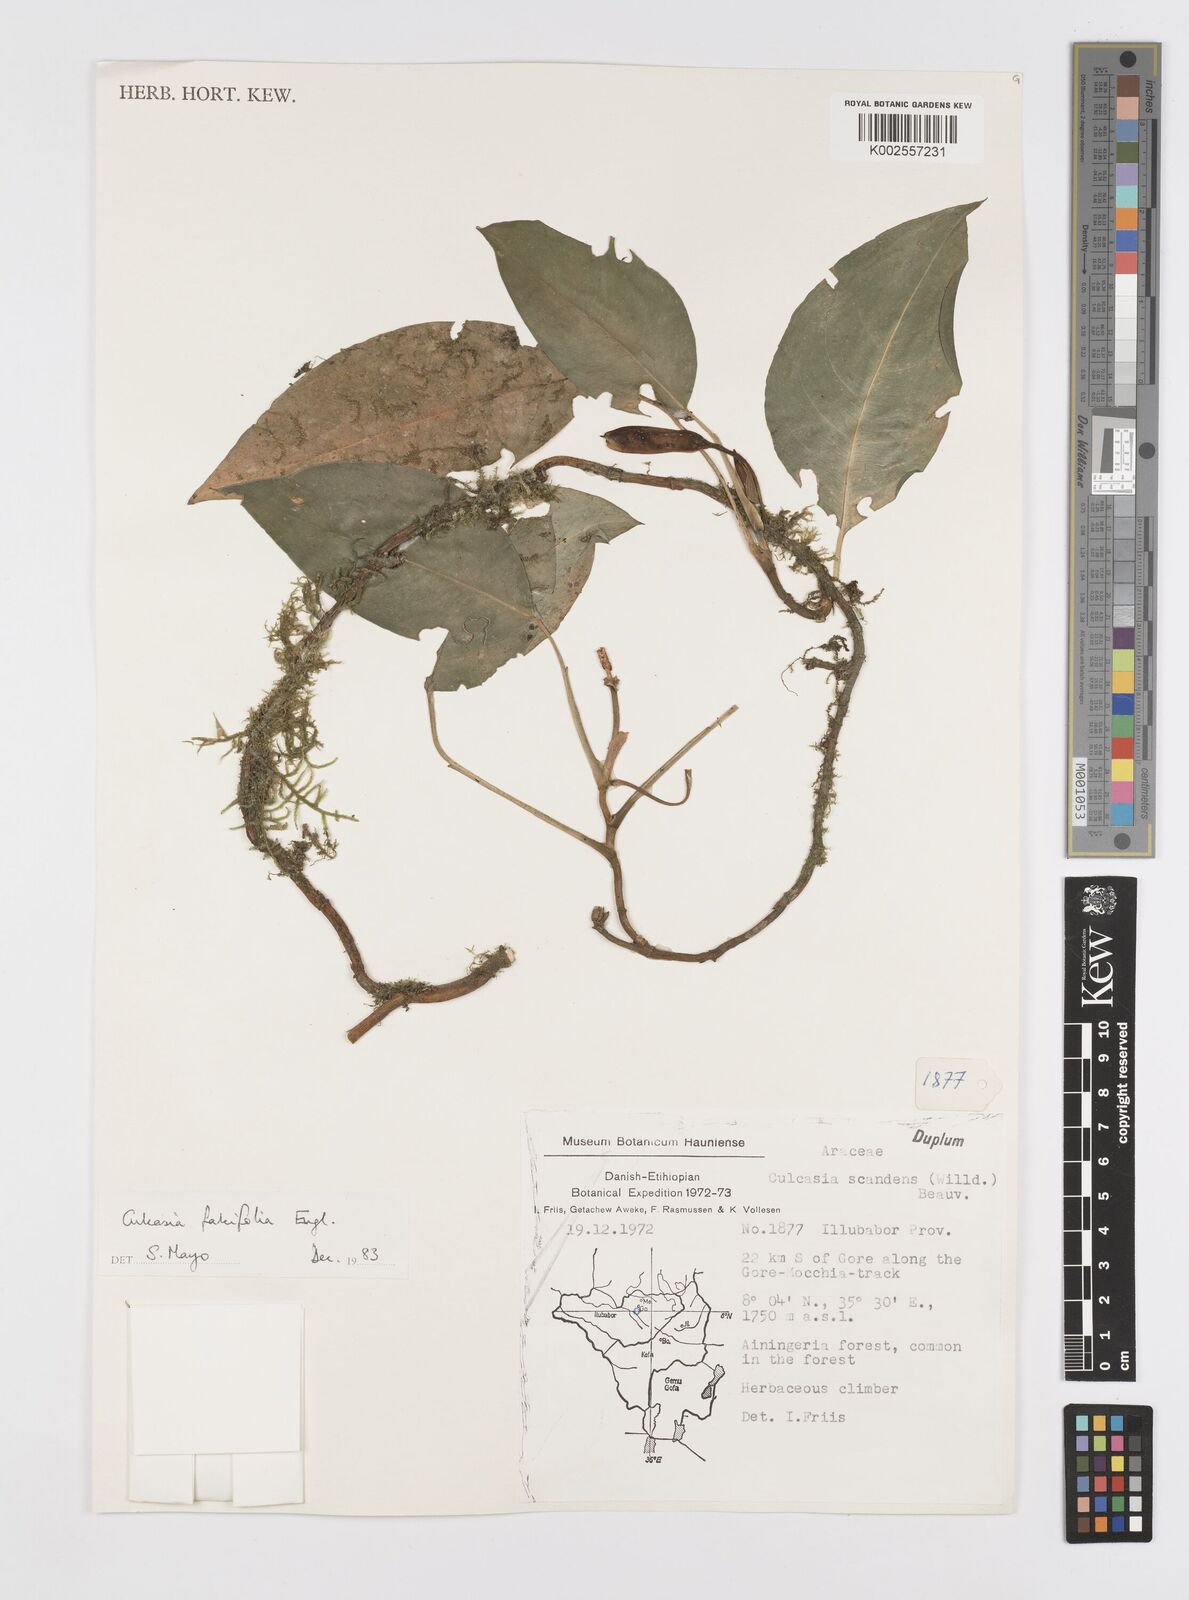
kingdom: Plantae
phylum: Tracheophyta
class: Liliopsida
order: Alismatales
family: Araceae
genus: Culcasia
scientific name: Culcasia falcifolia
